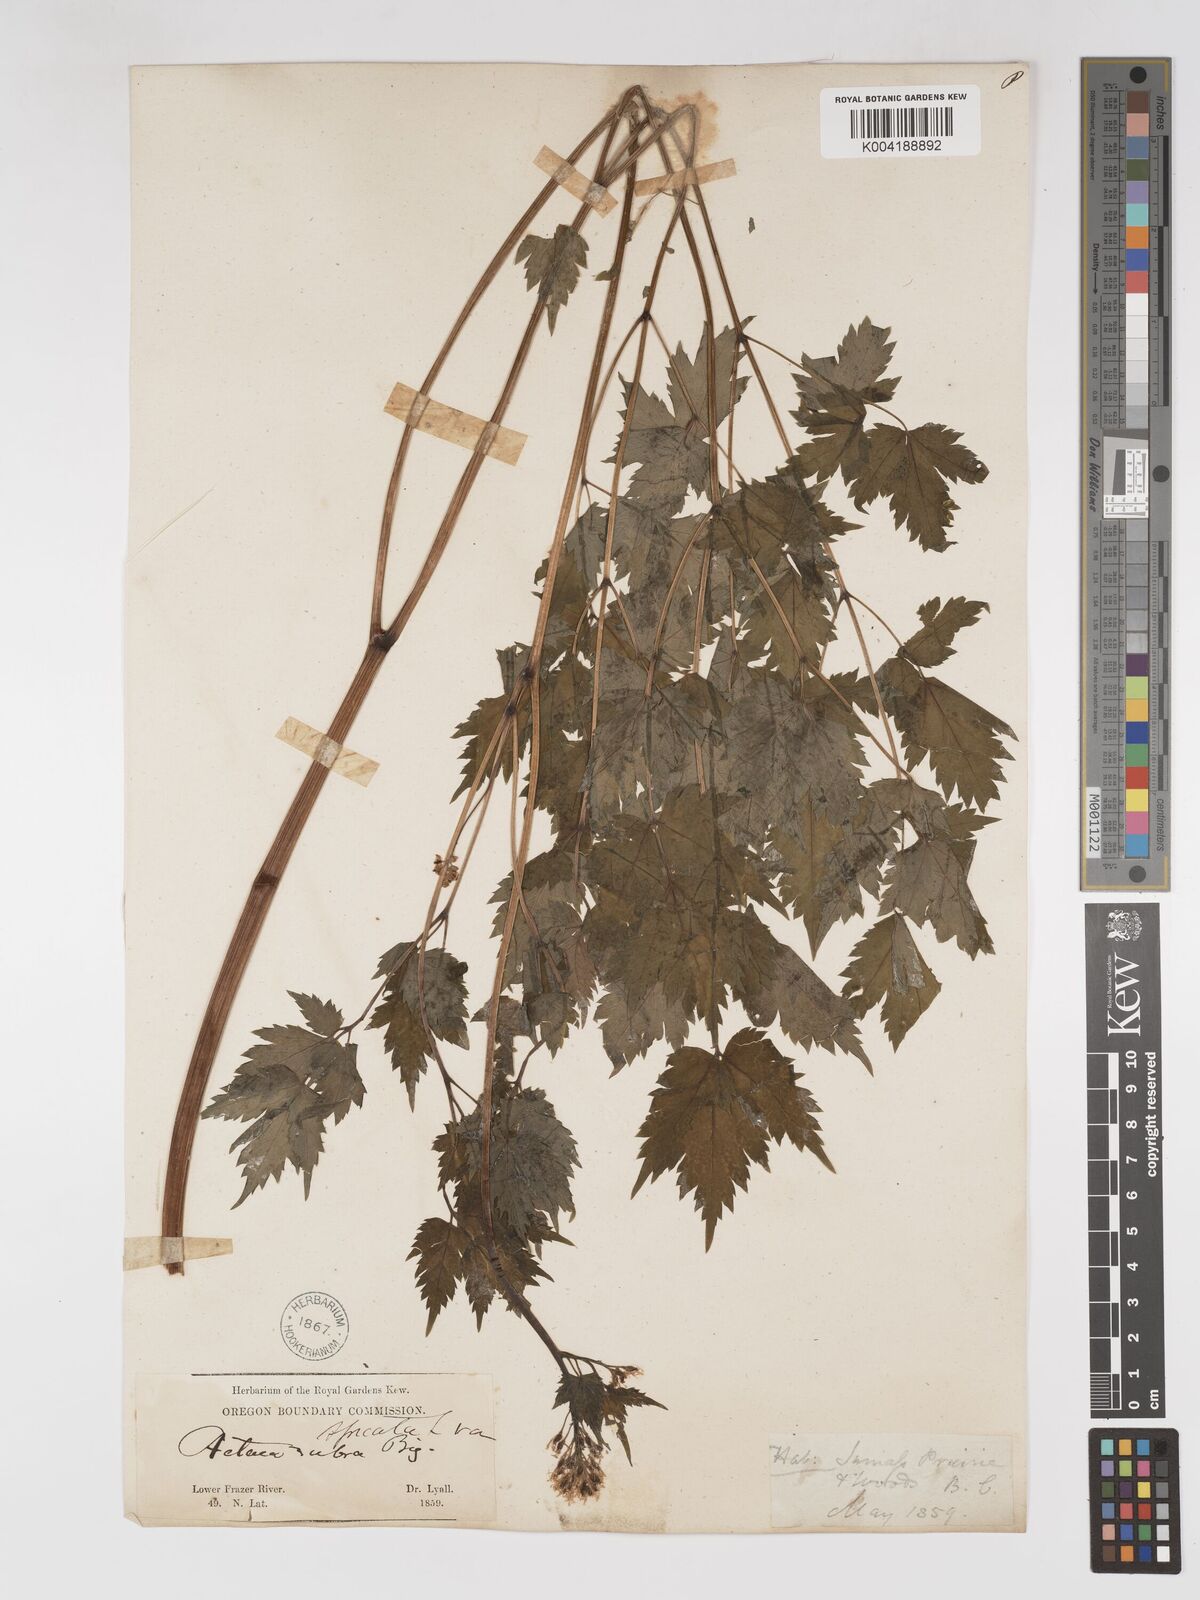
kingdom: Plantae
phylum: Tracheophyta
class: Magnoliopsida
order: Ranunculales
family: Ranunculaceae
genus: Actaea
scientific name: Actaea spicata
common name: Baneberry
